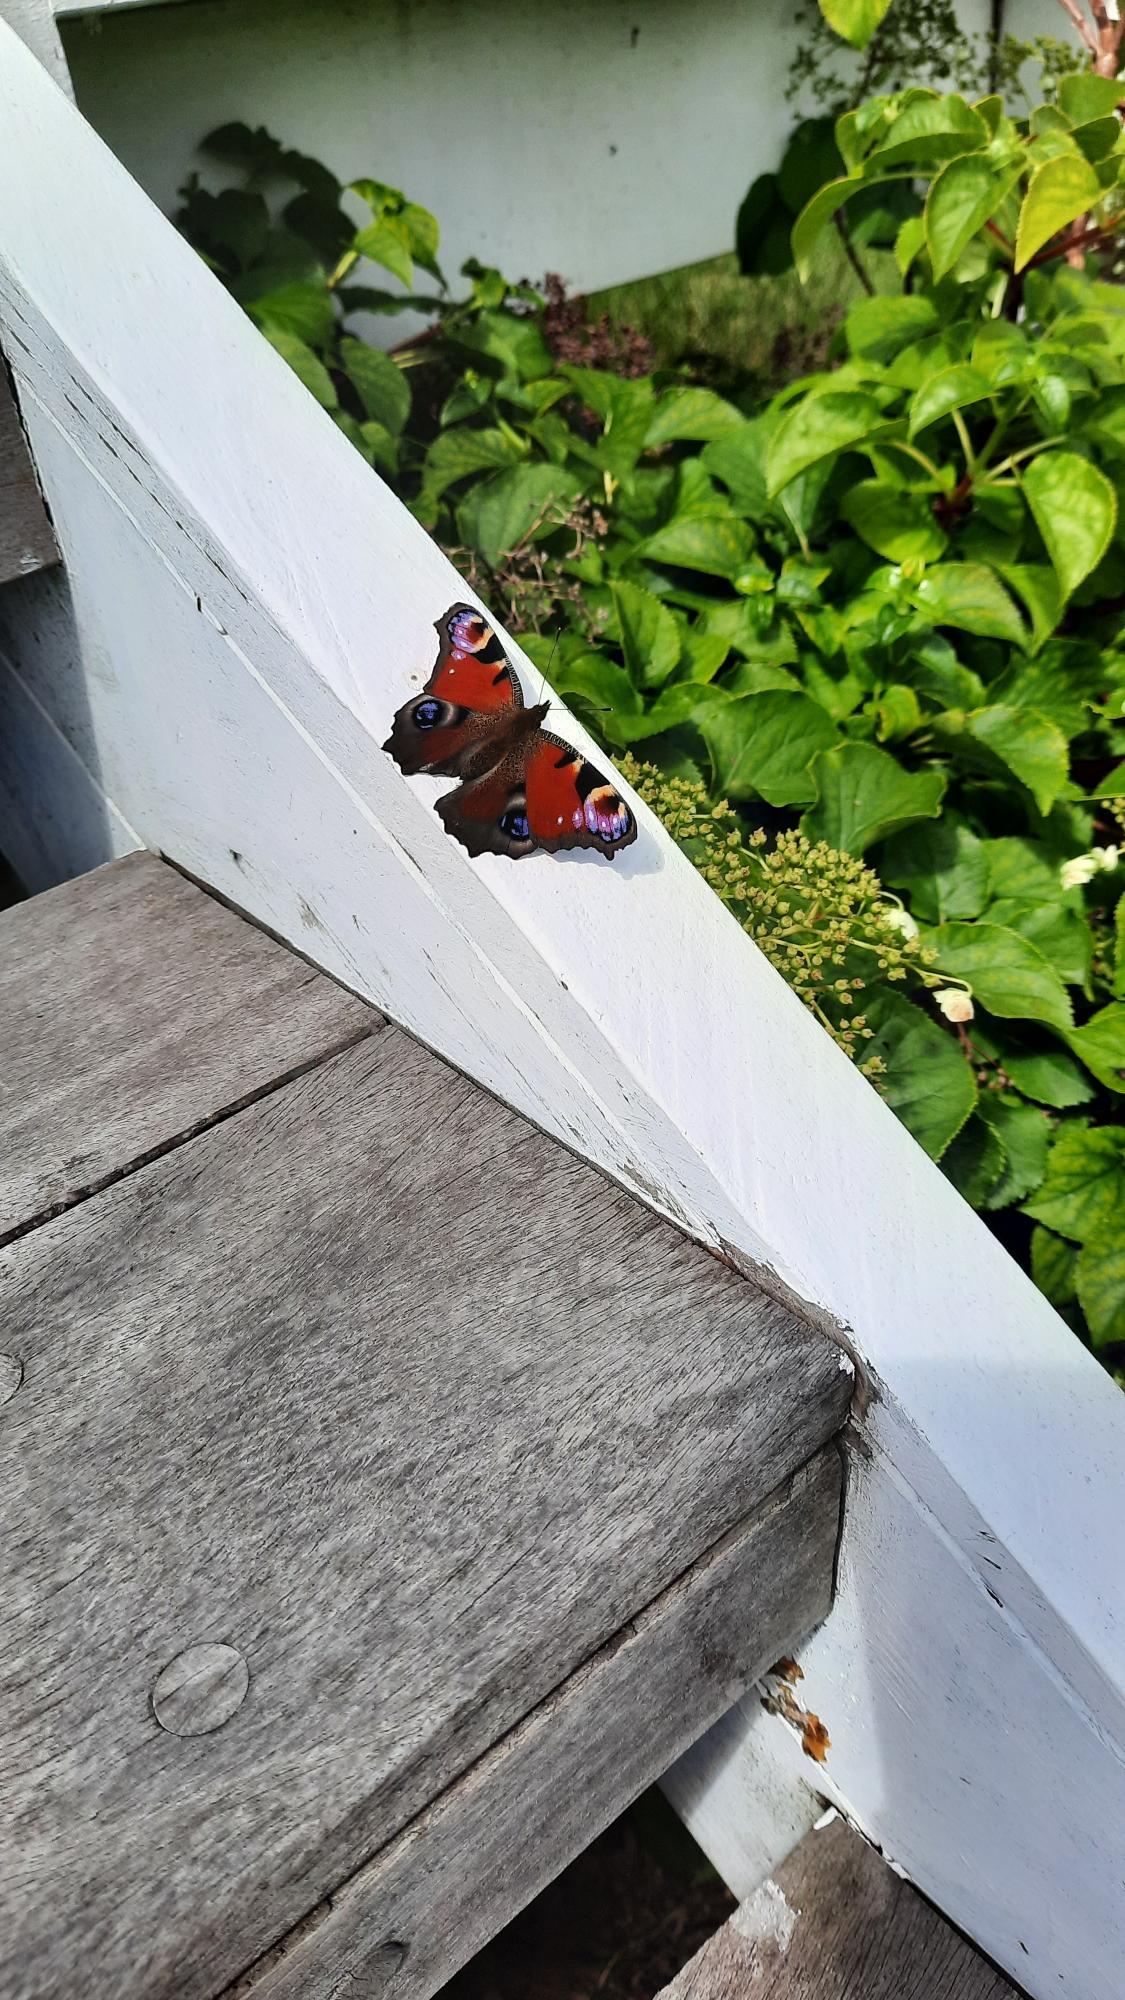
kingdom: Animalia
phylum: Arthropoda
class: Insecta
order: Lepidoptera
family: Nymphalidae
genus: Aglais
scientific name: Aglais io
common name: Dagpåfugleøje
